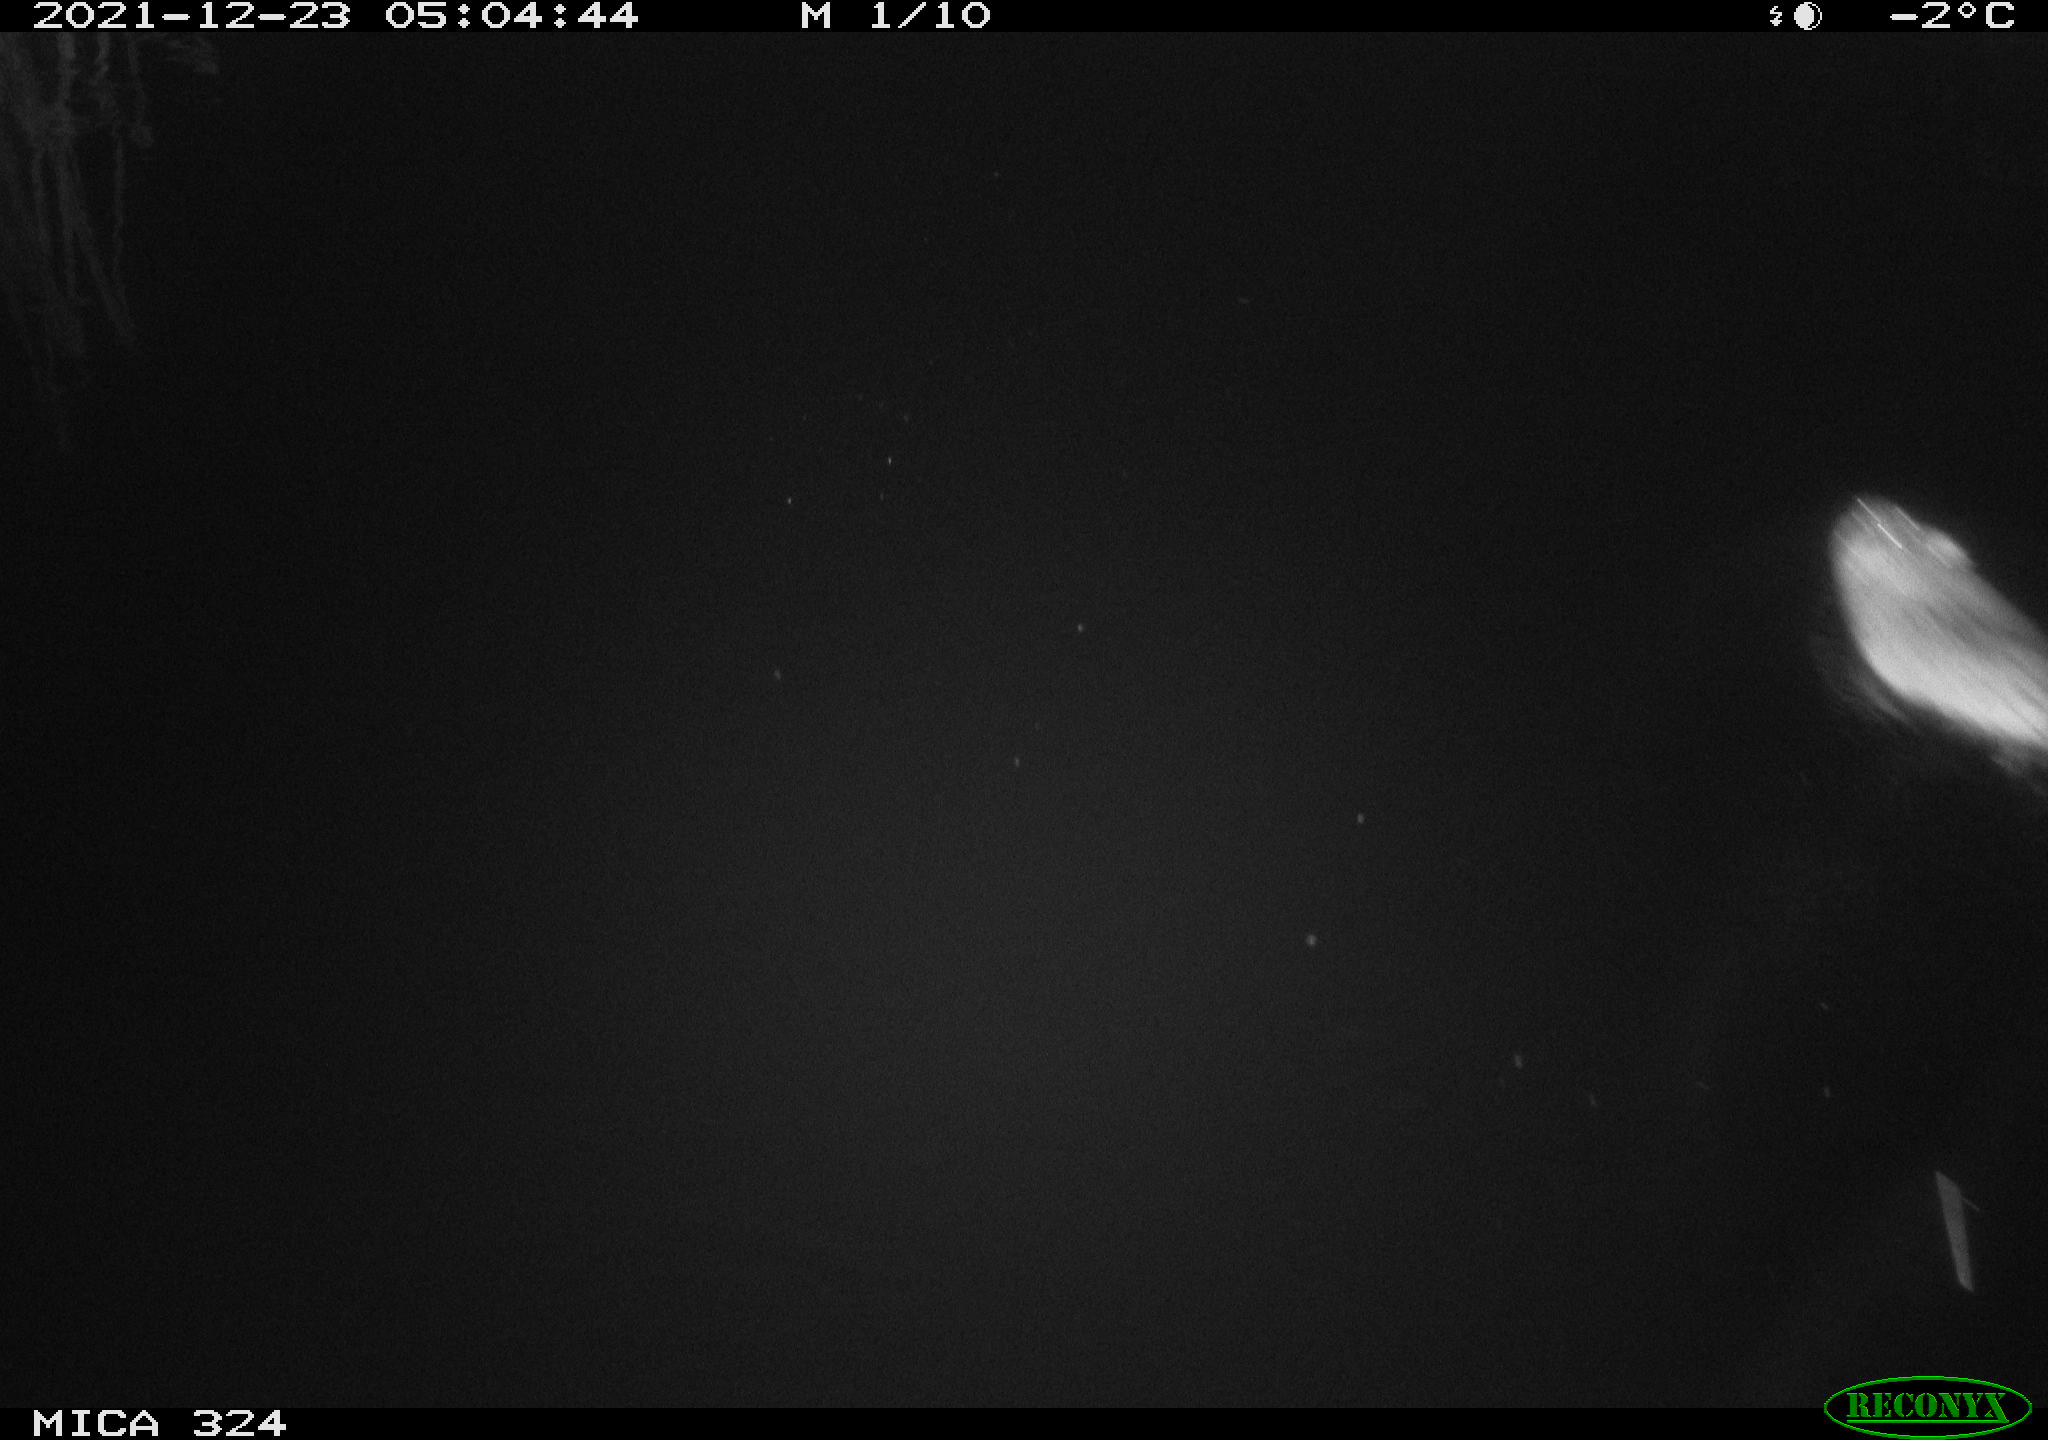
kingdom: Animalia
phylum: Chordata
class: Mammalia
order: Rodentia
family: Cricetidae
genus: Ondatra
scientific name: Ondatra zibethicus
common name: Muskrat
